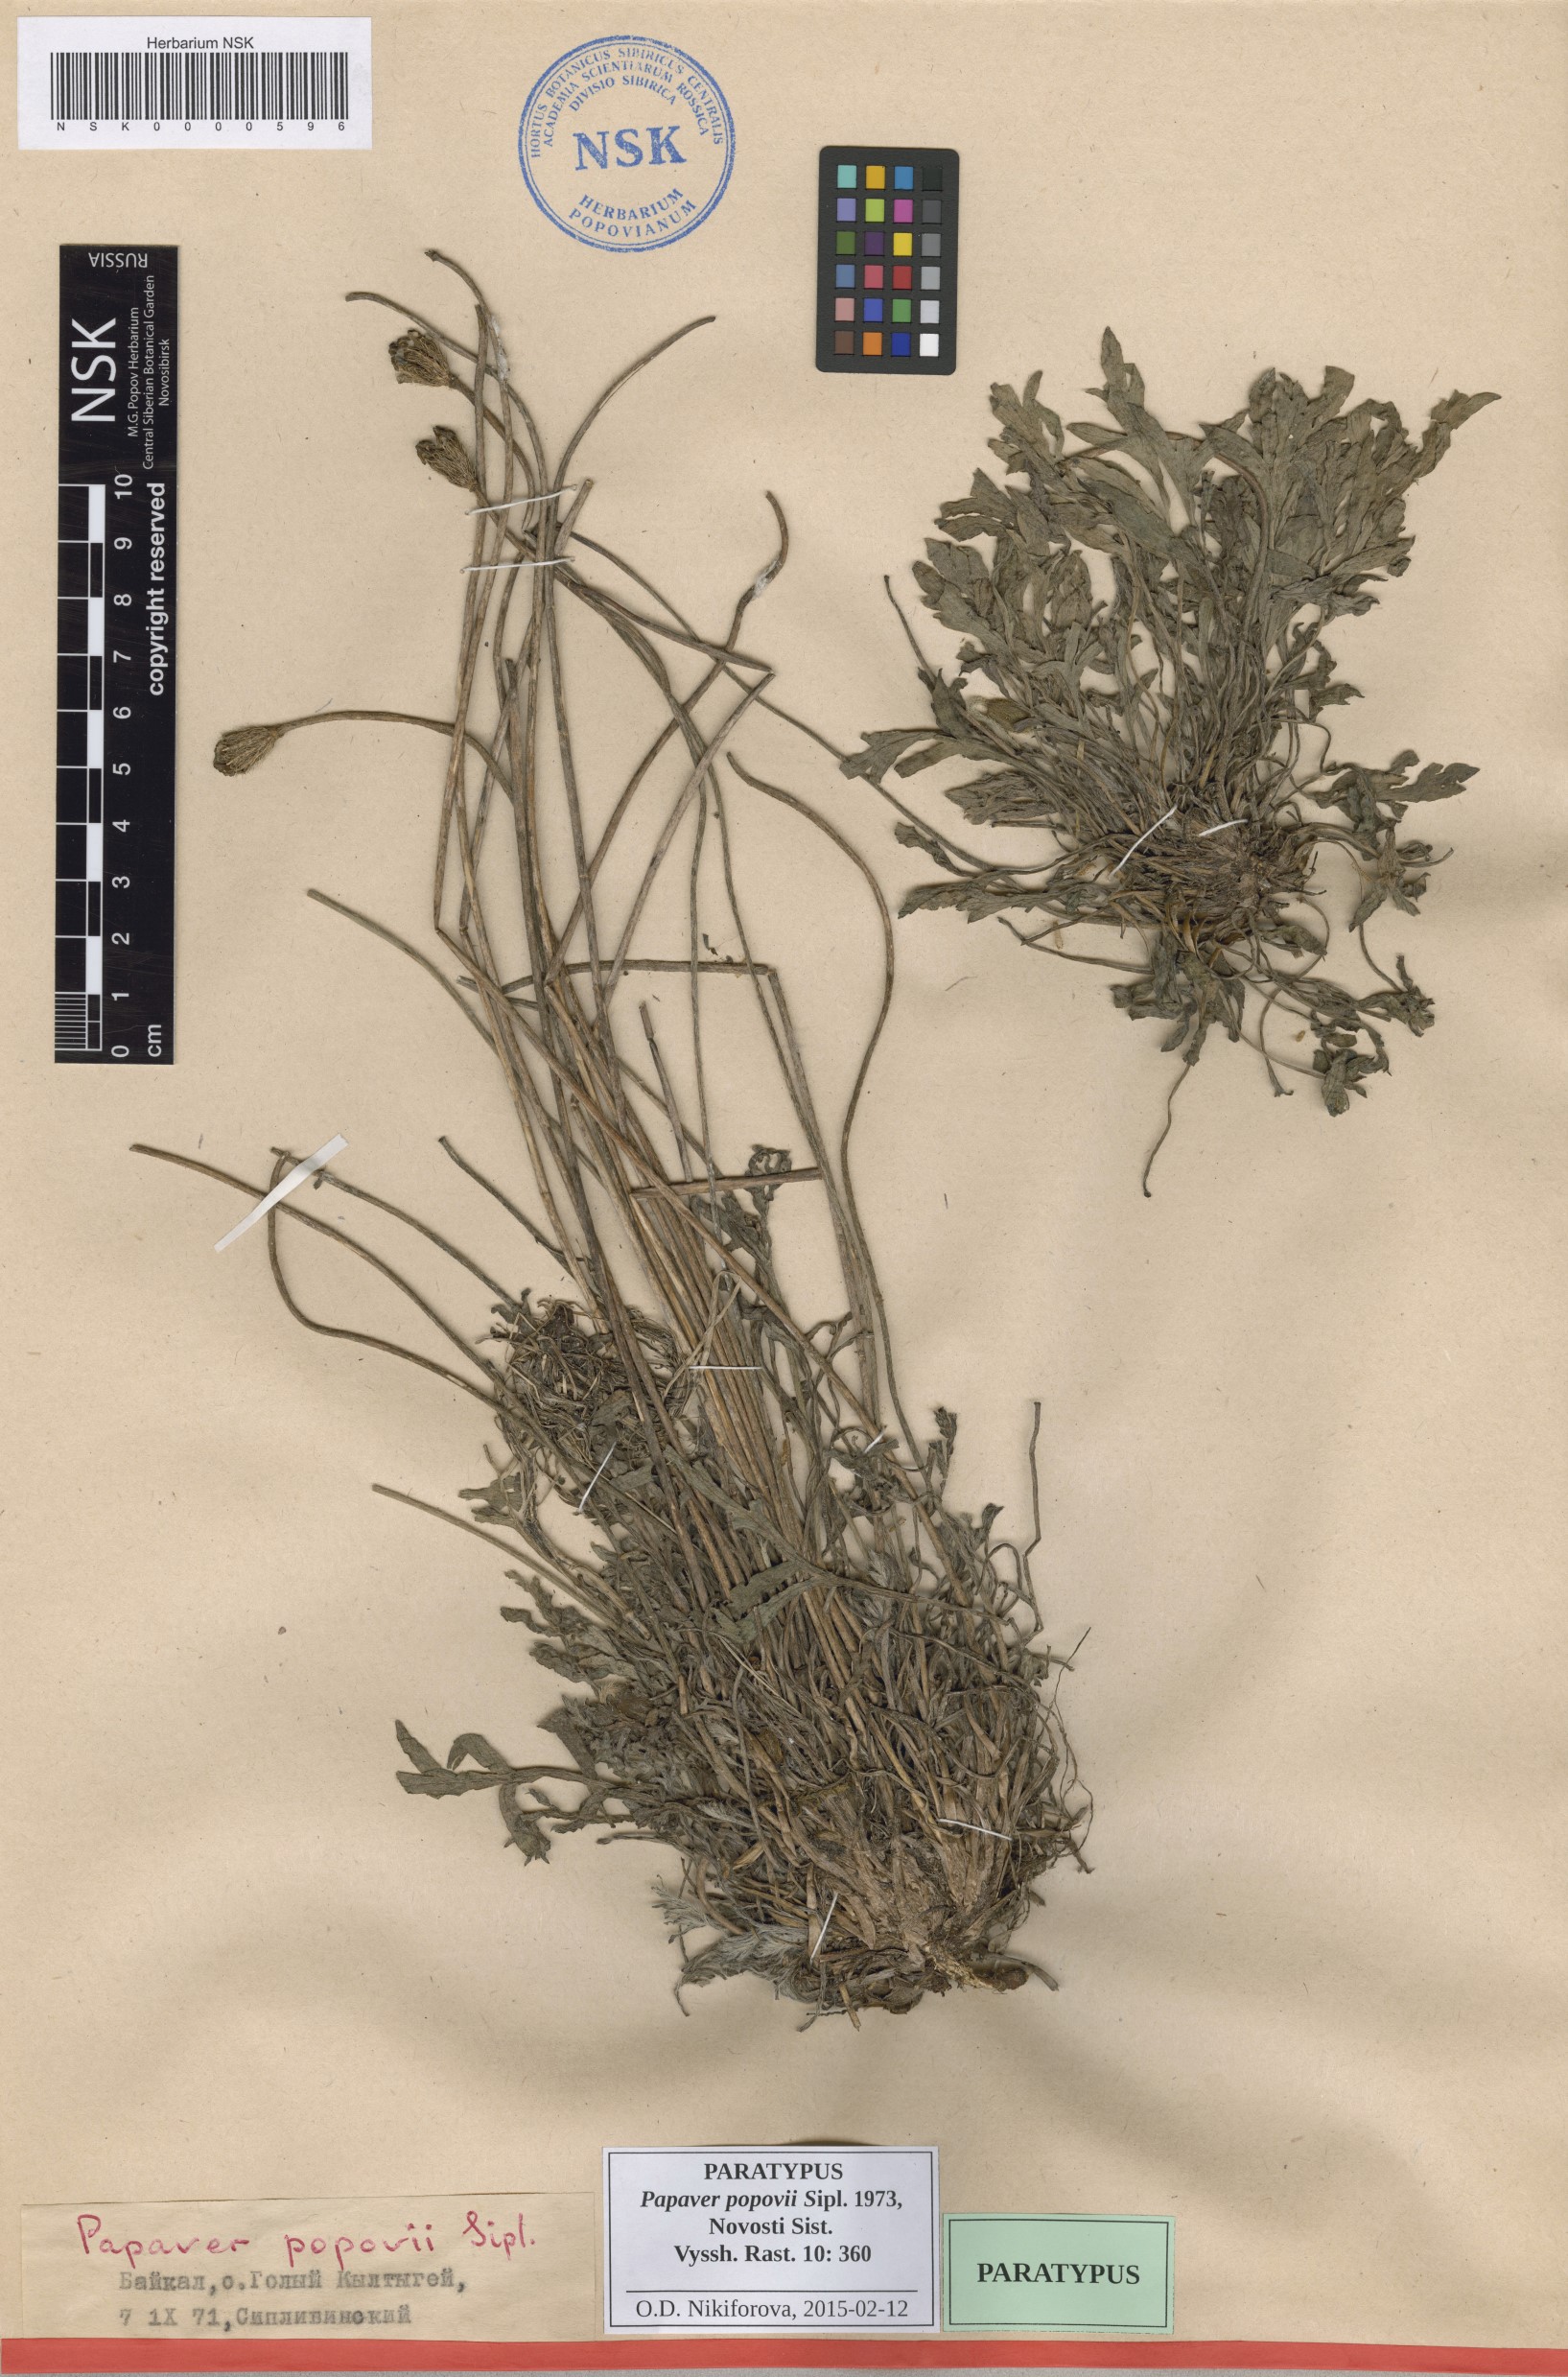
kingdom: Plantae
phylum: Tracheophyta
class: Magnoliopsida
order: Ranunculales
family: Papaveraceae
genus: Papaver
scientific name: Papaver popovii
